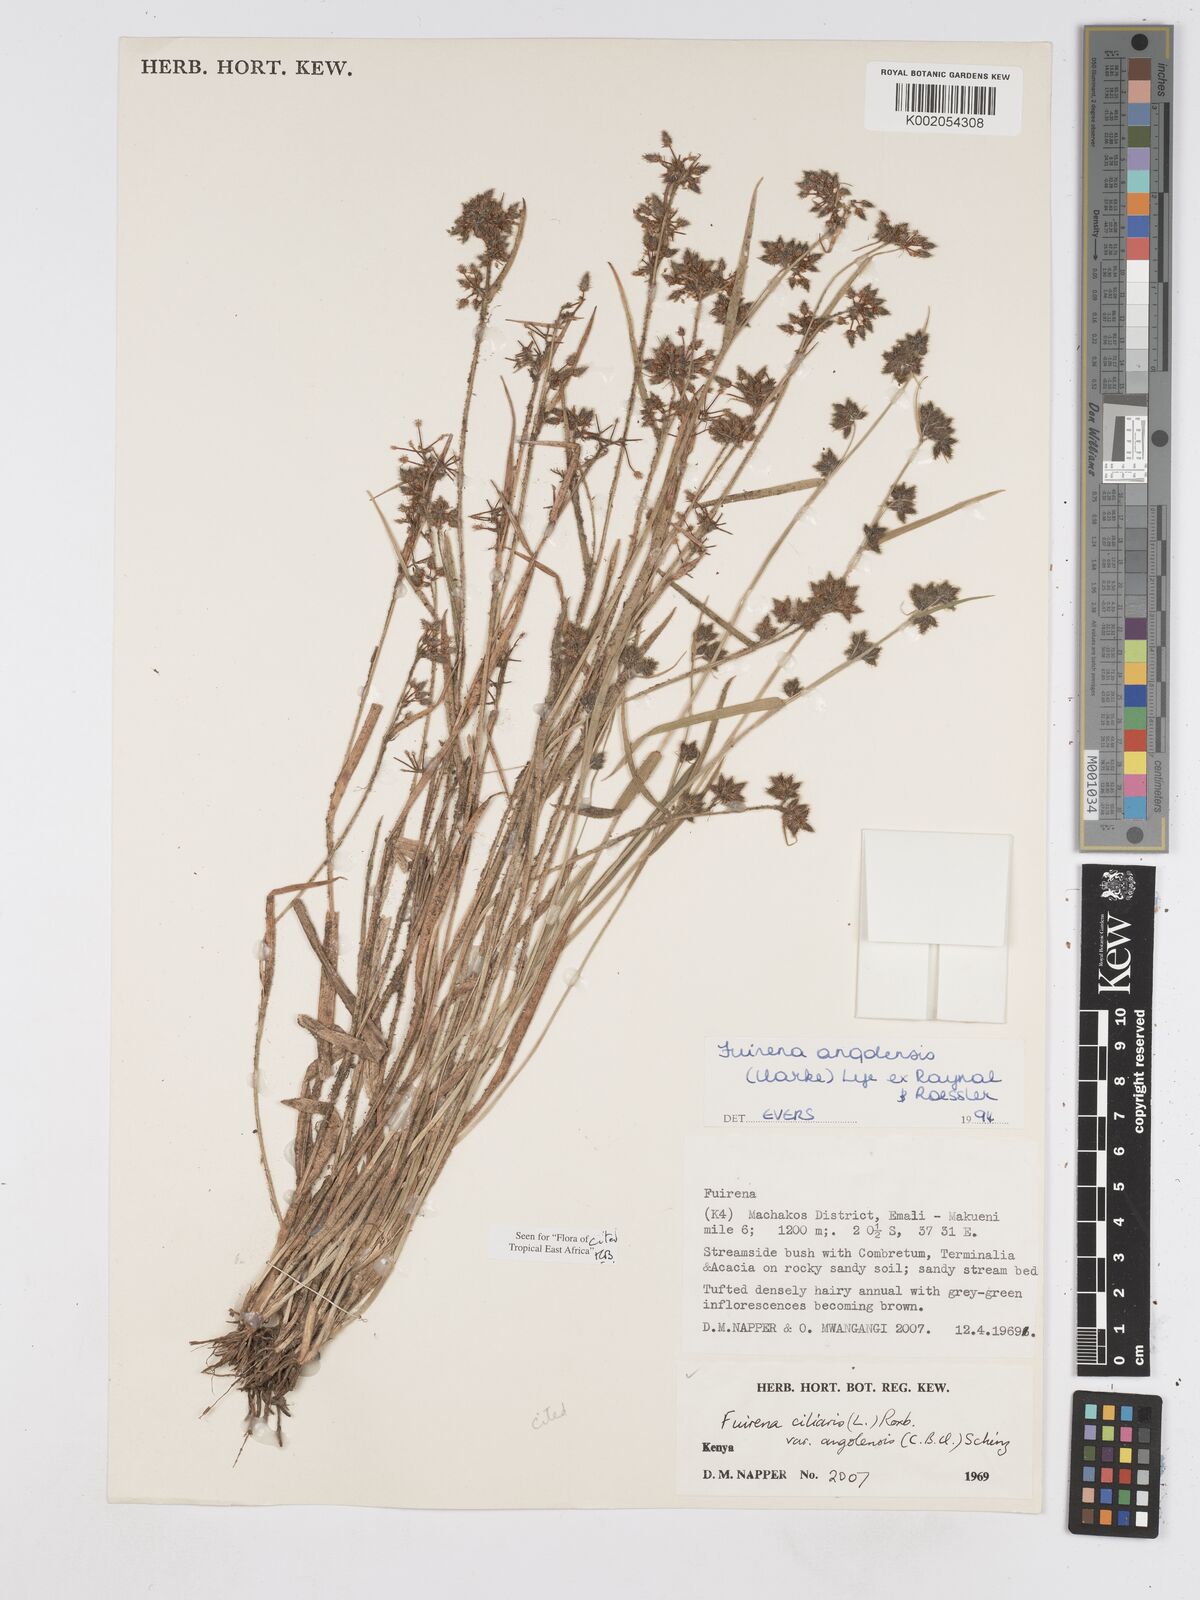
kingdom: Plantae
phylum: Tracheophyta
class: Liliopsida
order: Poales
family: Cyperaceae
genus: Fuirena
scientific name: Fuirena angolensis
